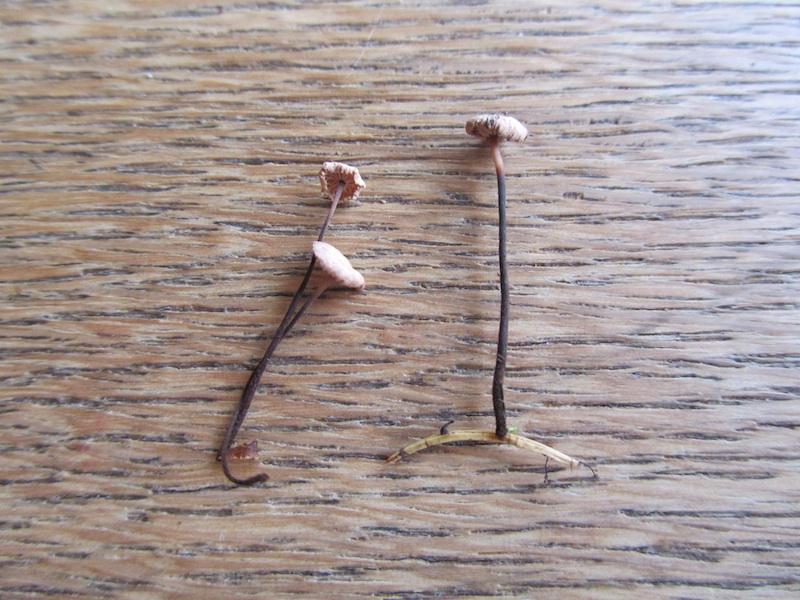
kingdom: Fungi
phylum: Basidiomycota
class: Agaricomycetes
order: Agaricales
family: Omphalotaceae
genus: Paragymnopus
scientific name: Paragymnopus perforans
